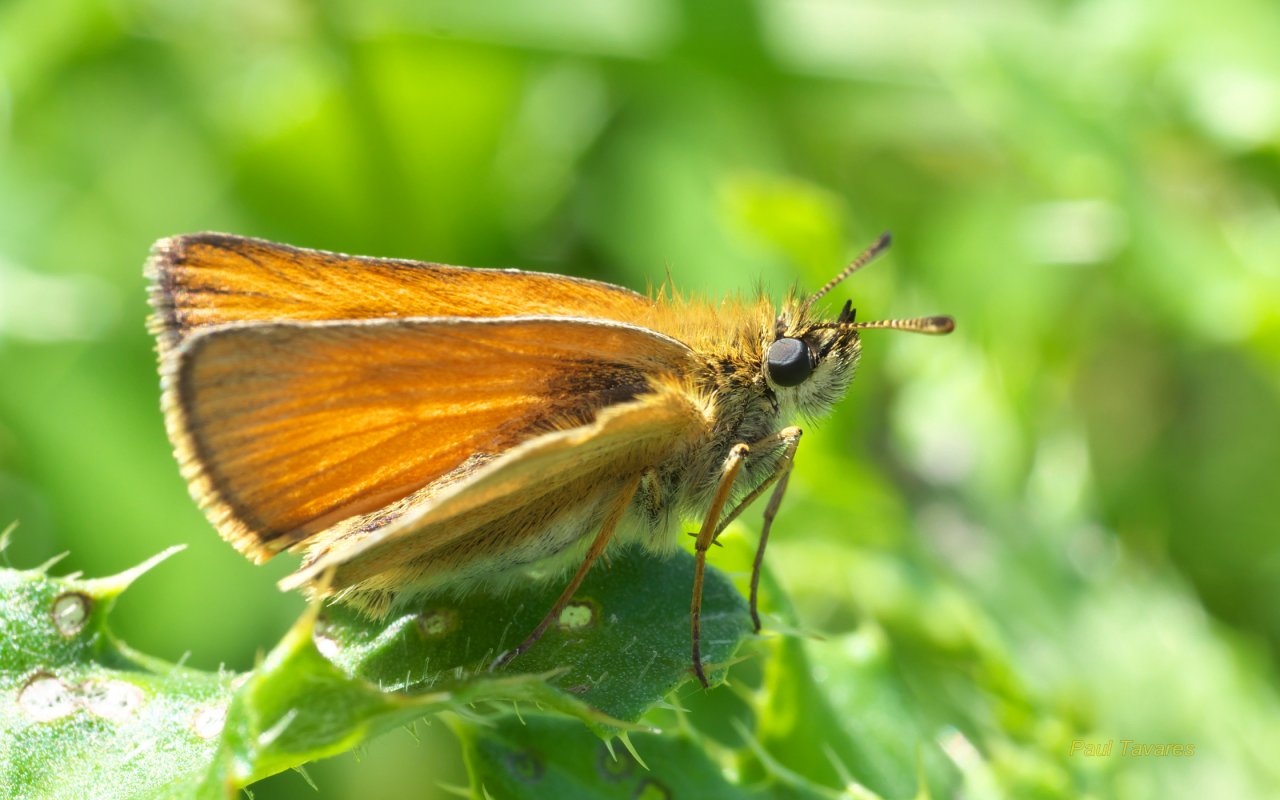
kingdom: Animalia
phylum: Arthropoda
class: Insecta
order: Lepidoptera
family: Hesperiidae
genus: Thymelicus
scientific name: Thymelicus lineola
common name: European Skipper
